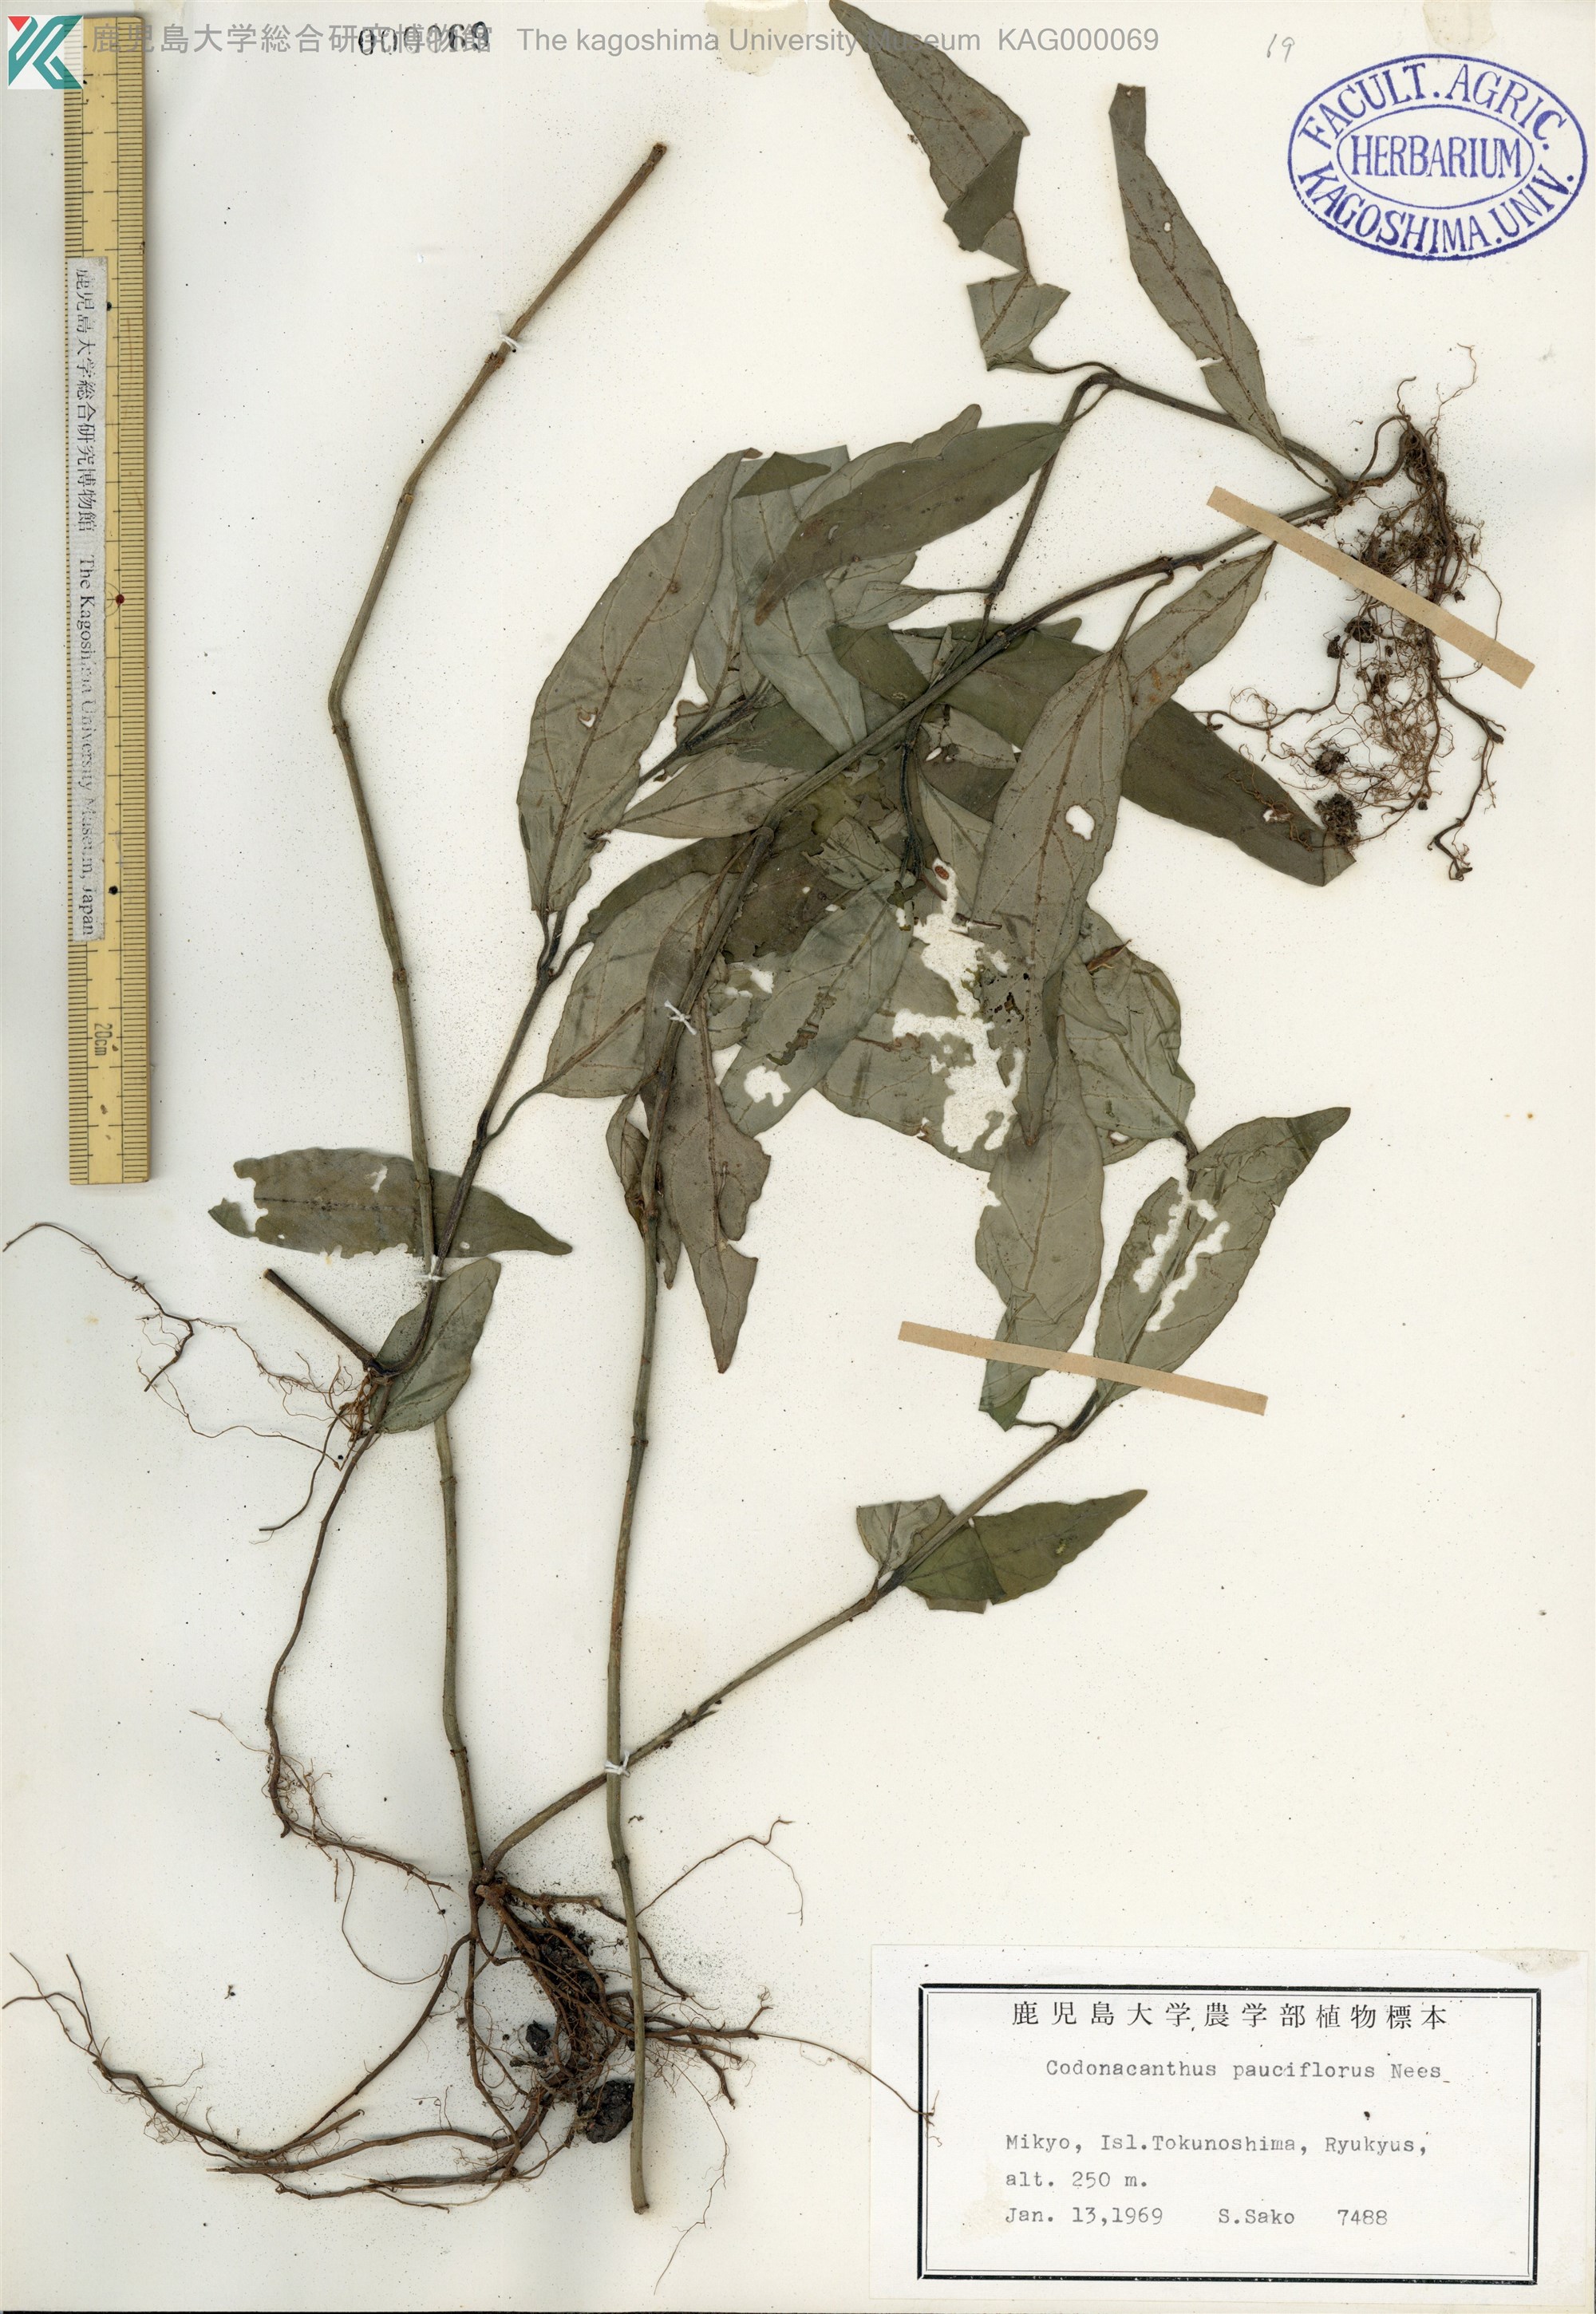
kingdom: Plantae
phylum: Tracheophyta
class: Magnoliopsida
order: Lamiales
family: Acanthaceae
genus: Codonacanthus
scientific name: Codonacanthus pauciflorus
